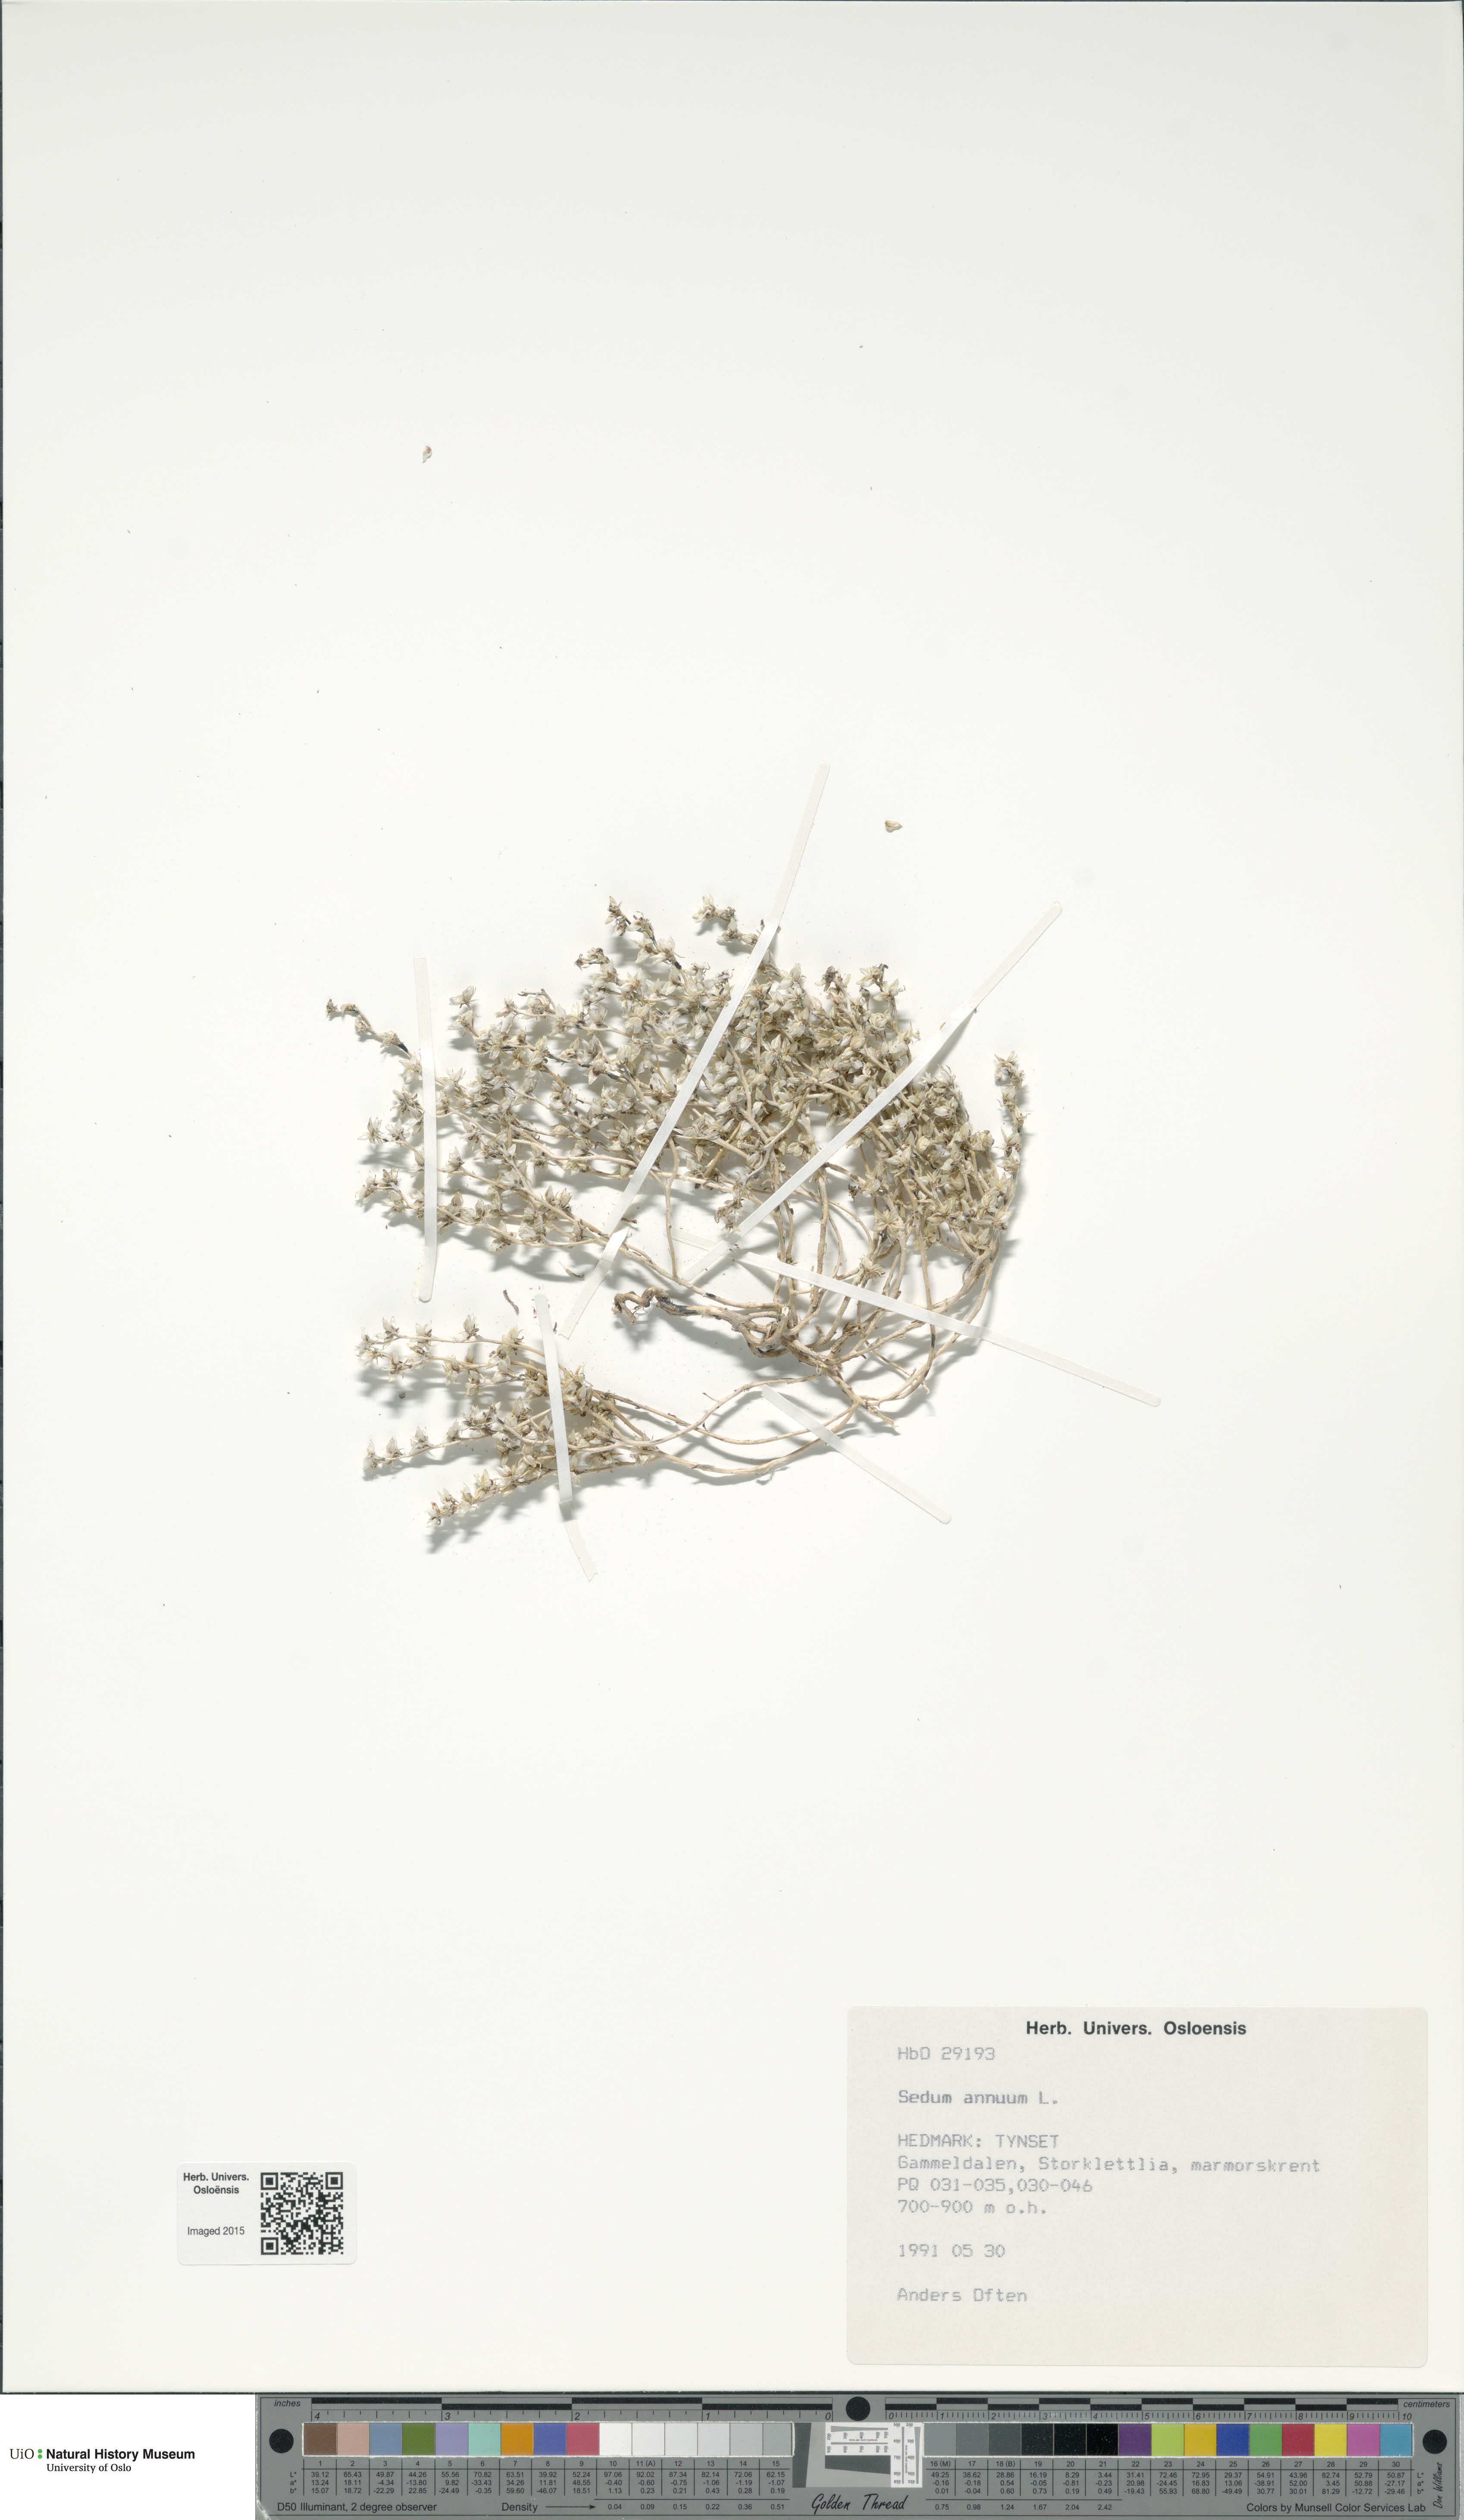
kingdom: Plantae
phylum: Tracheophyta
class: Magnoliopsida
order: Saxifragales
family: Crassulaceae
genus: Sedum
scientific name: Sedum annuum
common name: Annual stonecrop
